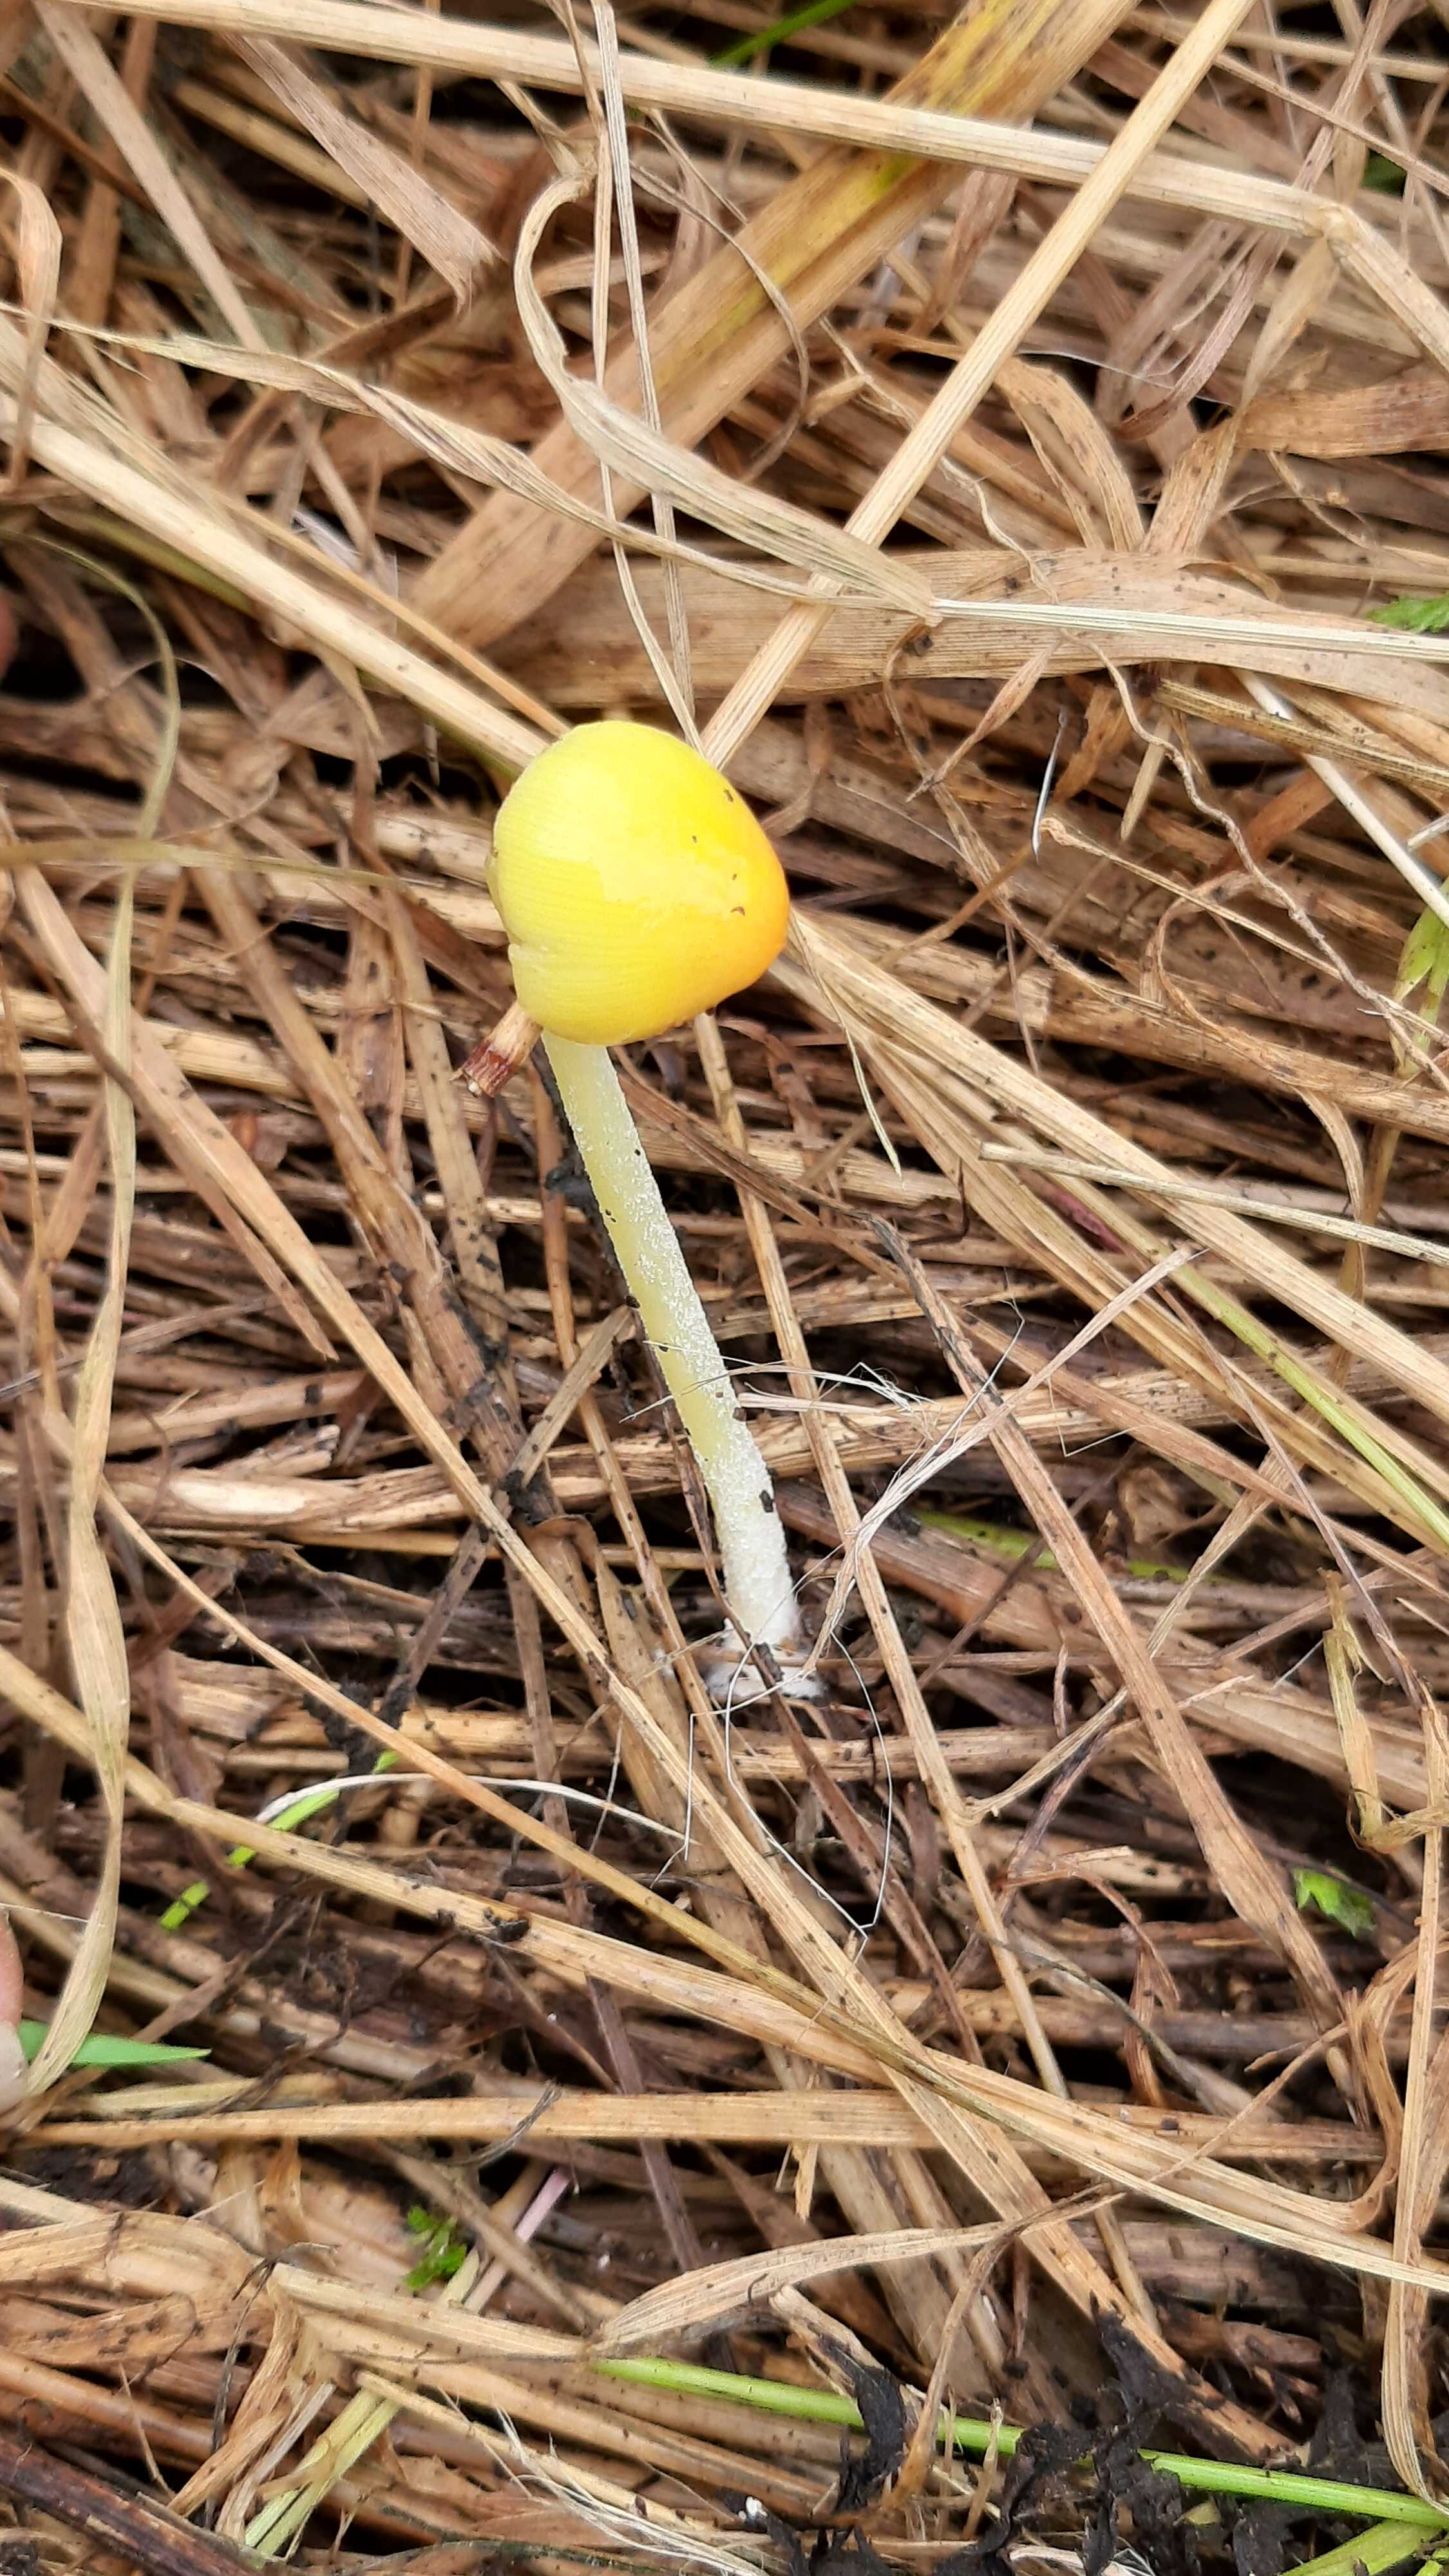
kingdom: Fungi
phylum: Basidiomycota
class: Agaricomycetes
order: Agaricales
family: Bolbitiaceae
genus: Bolbitius
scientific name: Bolbitius titubans
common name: almindelig gulhat
